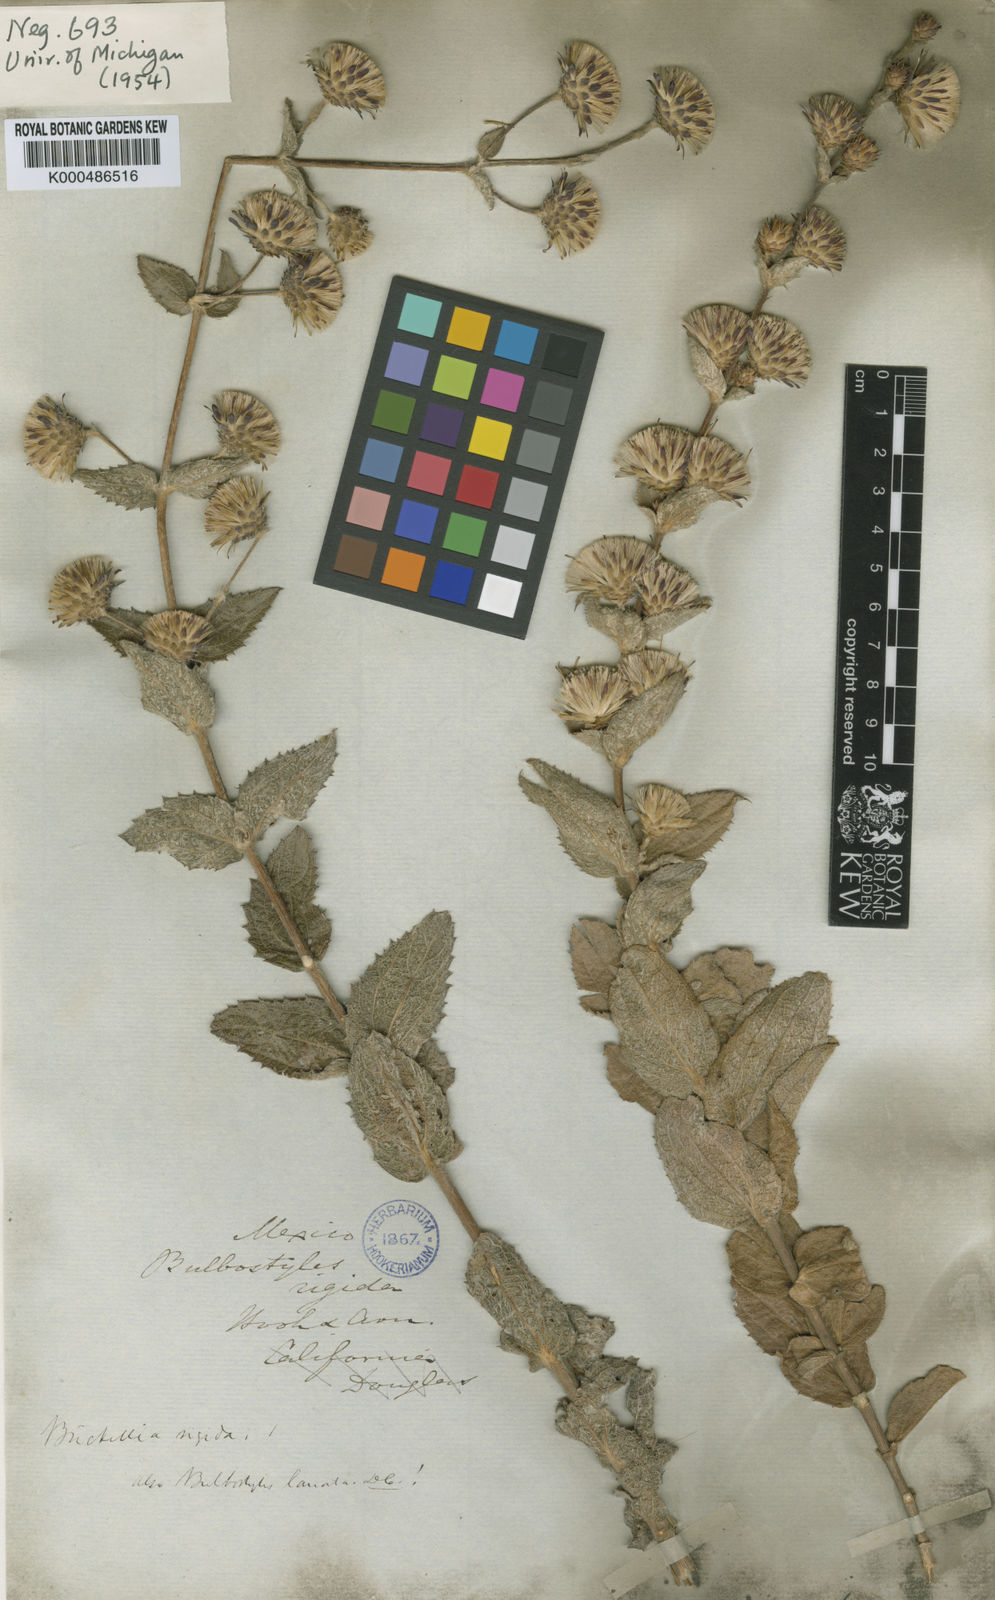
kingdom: Plantae
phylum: Tracheophyta
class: Magnoliopsida
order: Asterales
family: Asteraceae
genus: Brickellia
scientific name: Brickellia lanata
